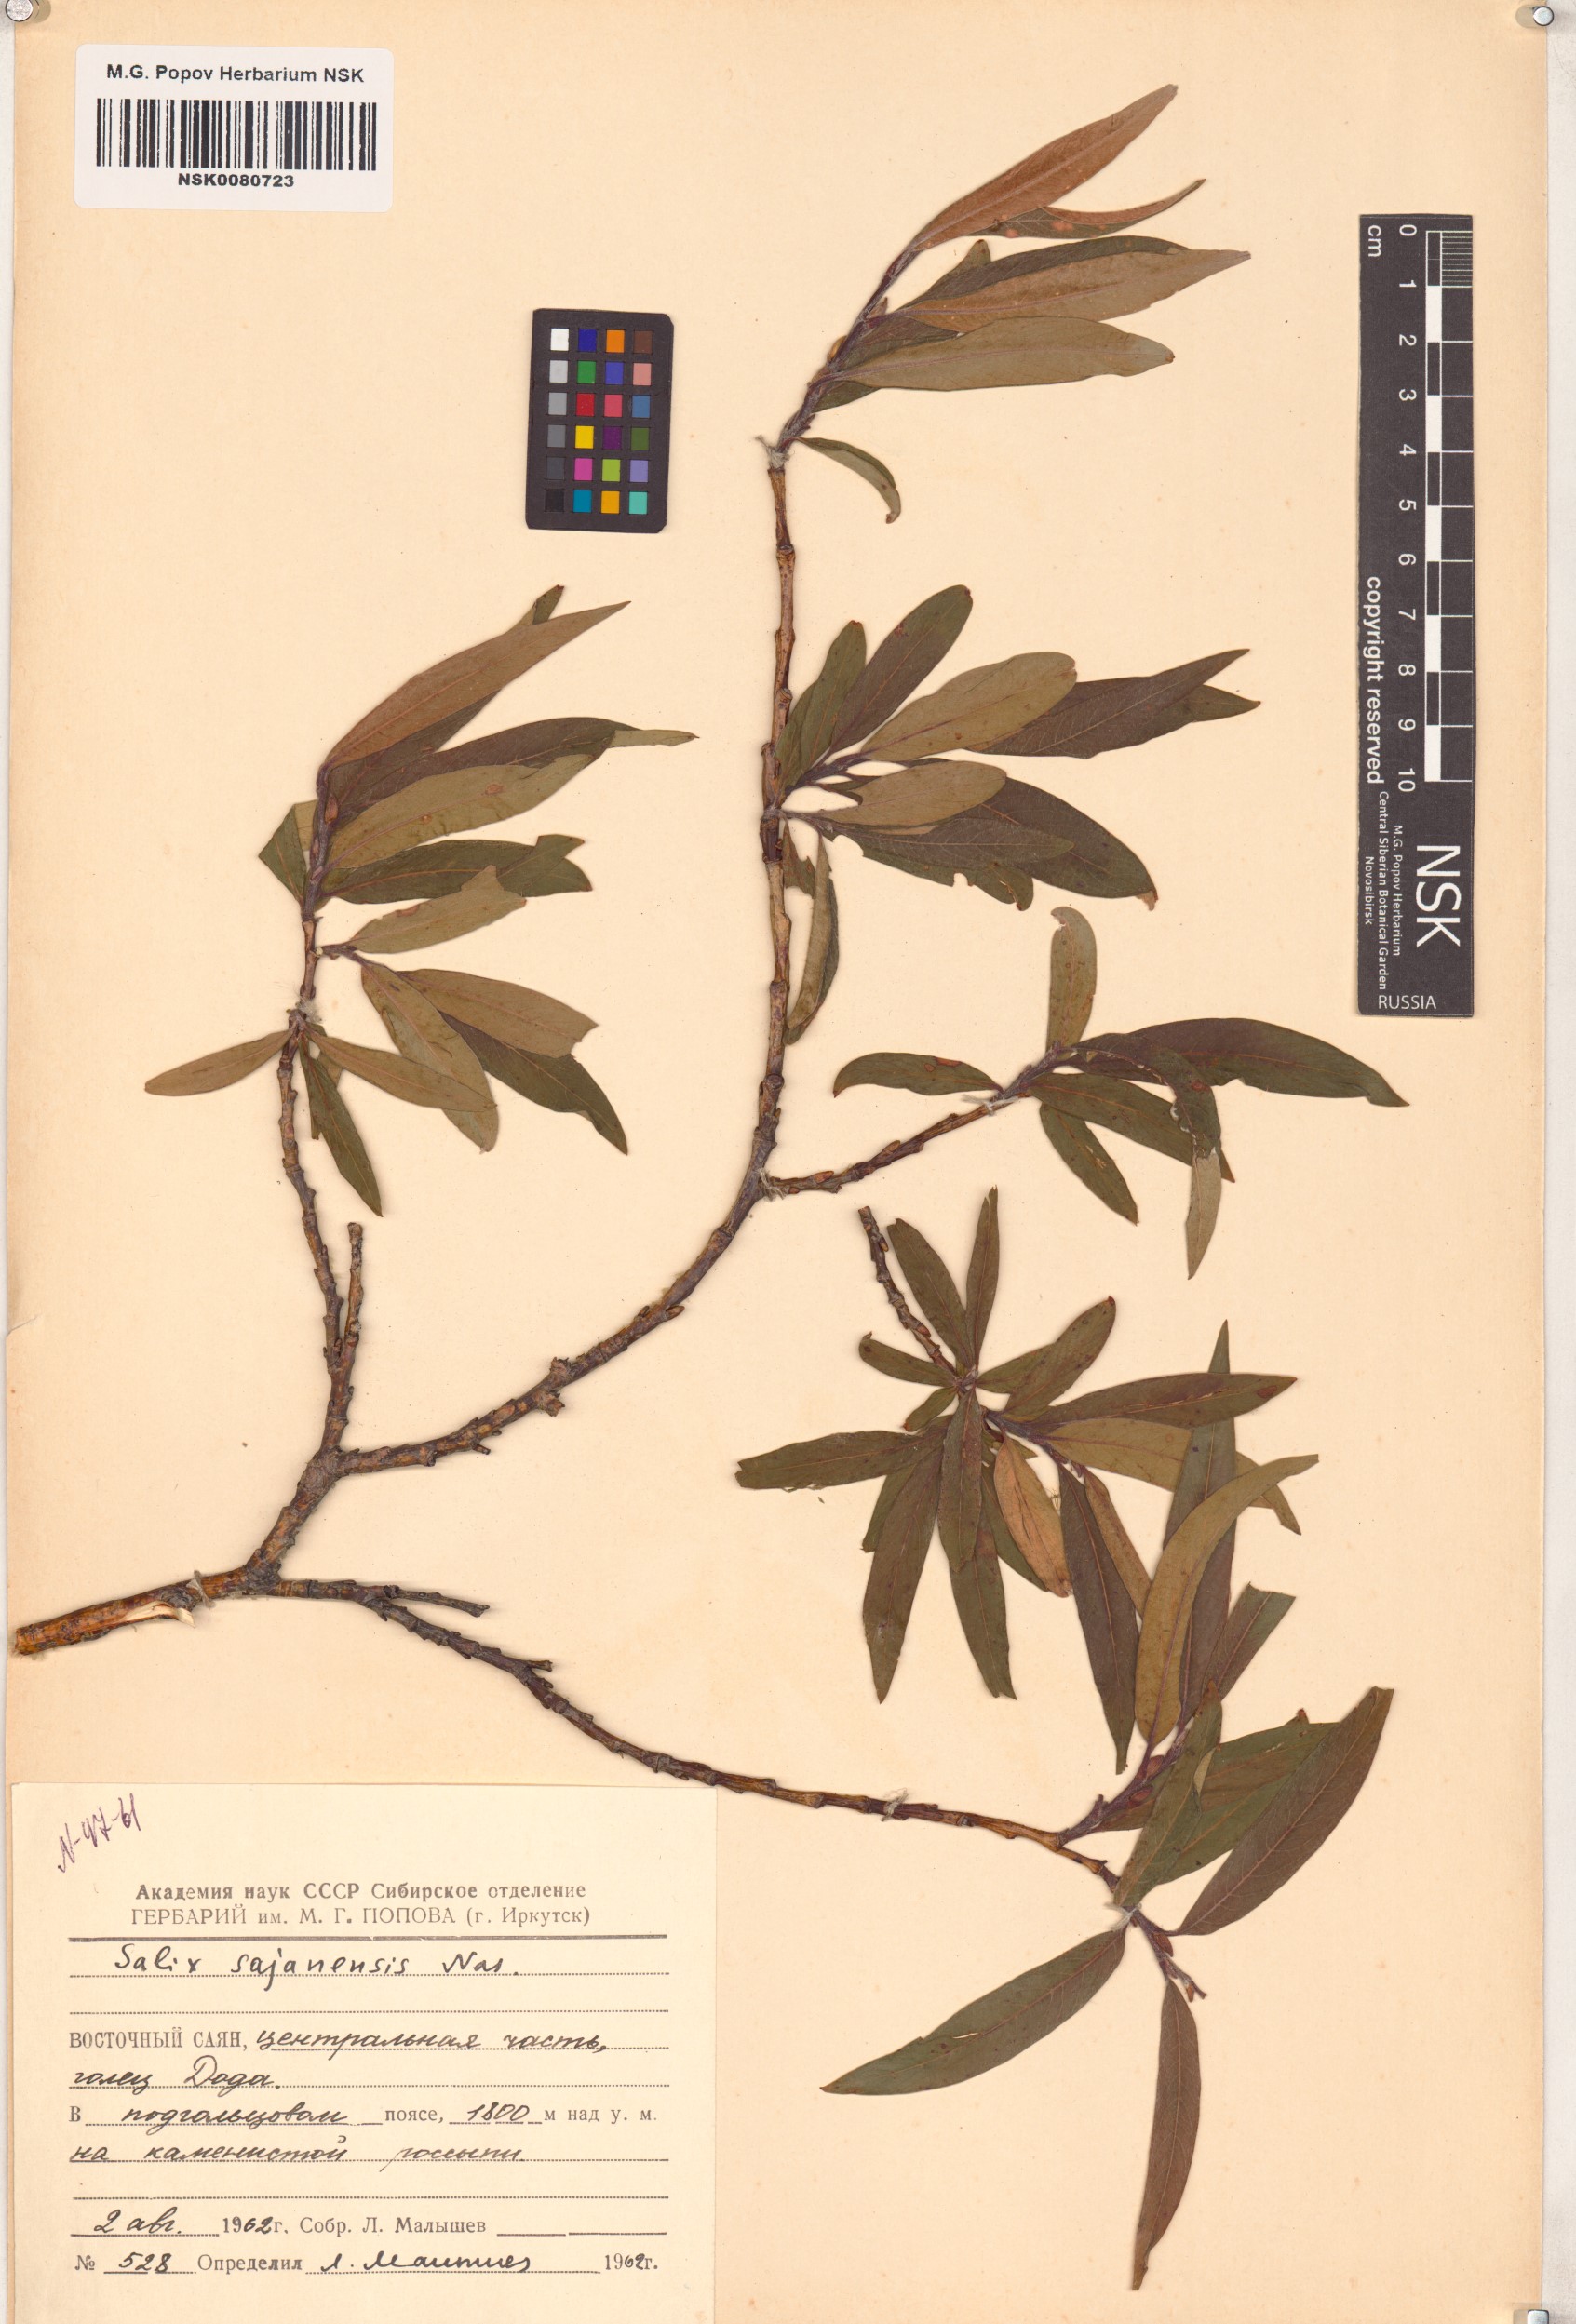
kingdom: Plantae
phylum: Tracheophyta
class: Magnoliopsida
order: Malpighiales
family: Salicaceae
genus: Salix
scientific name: Salix sajanensis
